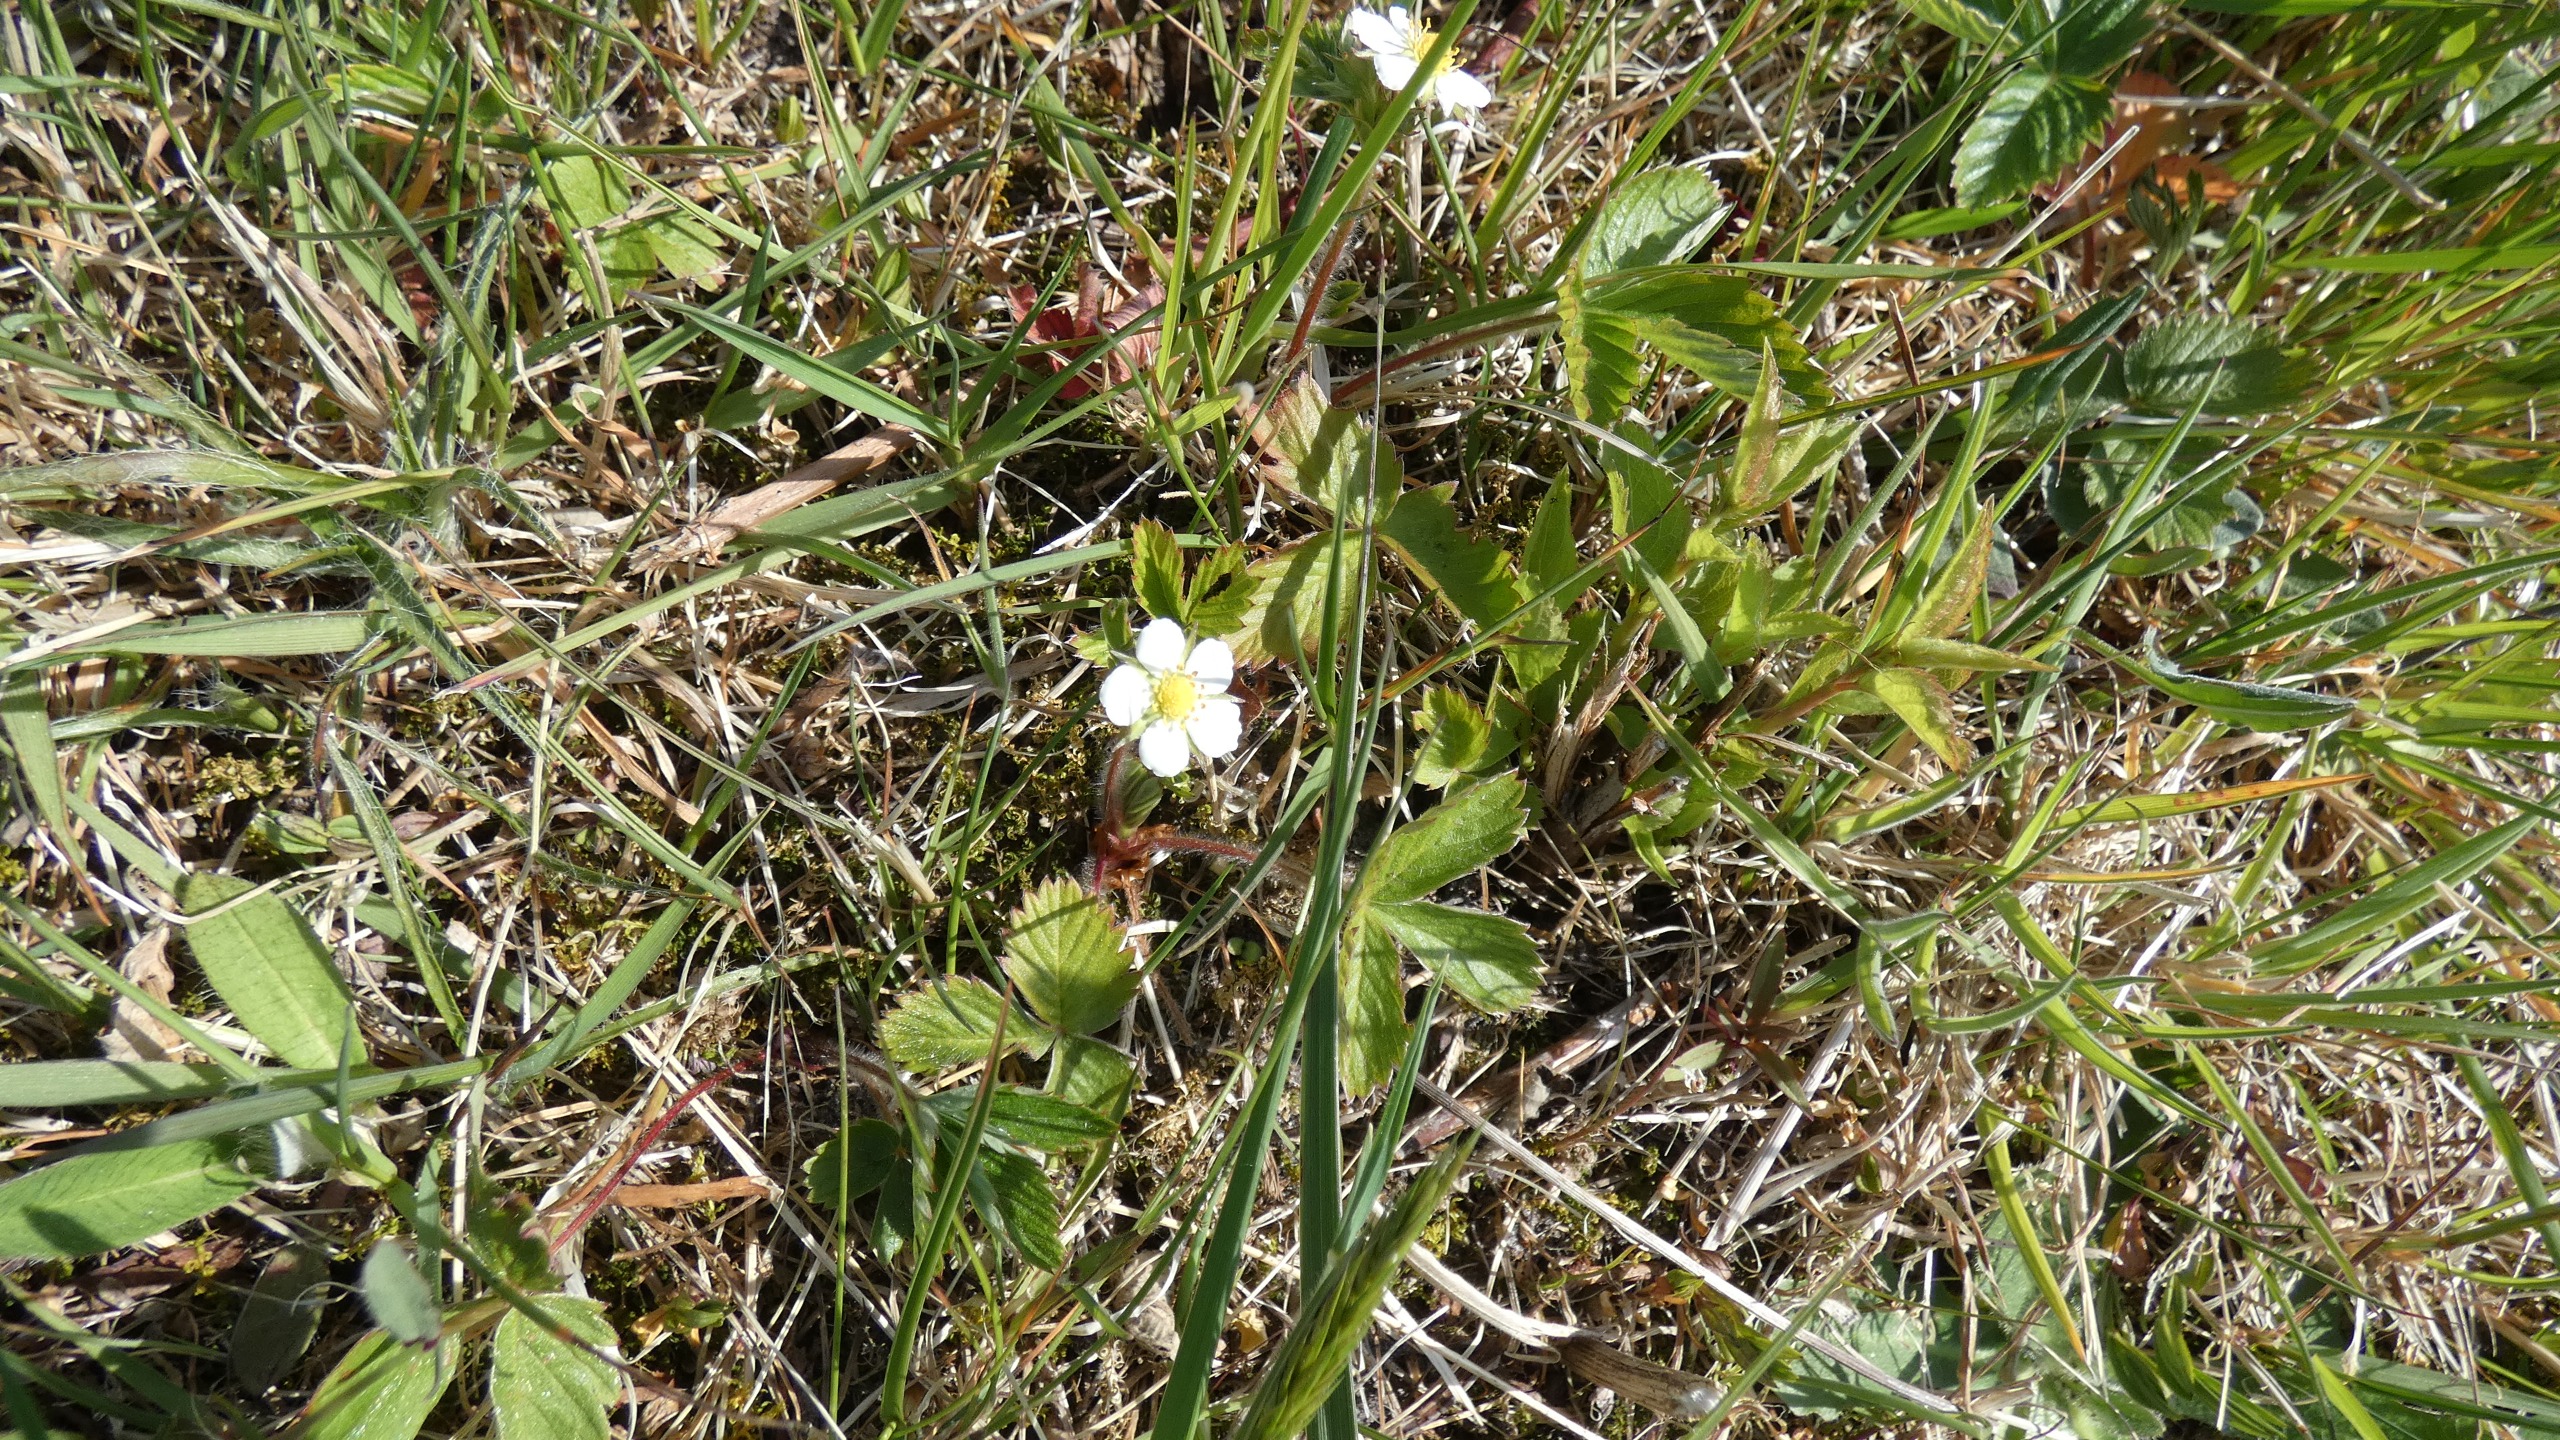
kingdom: Plantae
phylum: Tracheophyta
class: Magnoliopsida
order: Rosales
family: Rosaceae
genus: Fragaria
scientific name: Fragaria vesca
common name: Skov-jordbær
